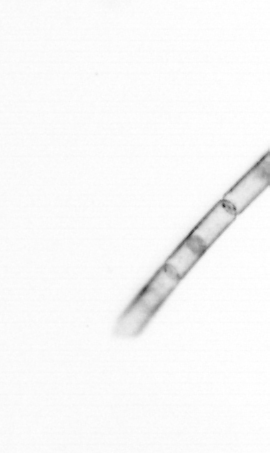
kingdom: Chromista
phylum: Ochrophyta
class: Bacillariophyceae
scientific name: Bacillariophyceae
